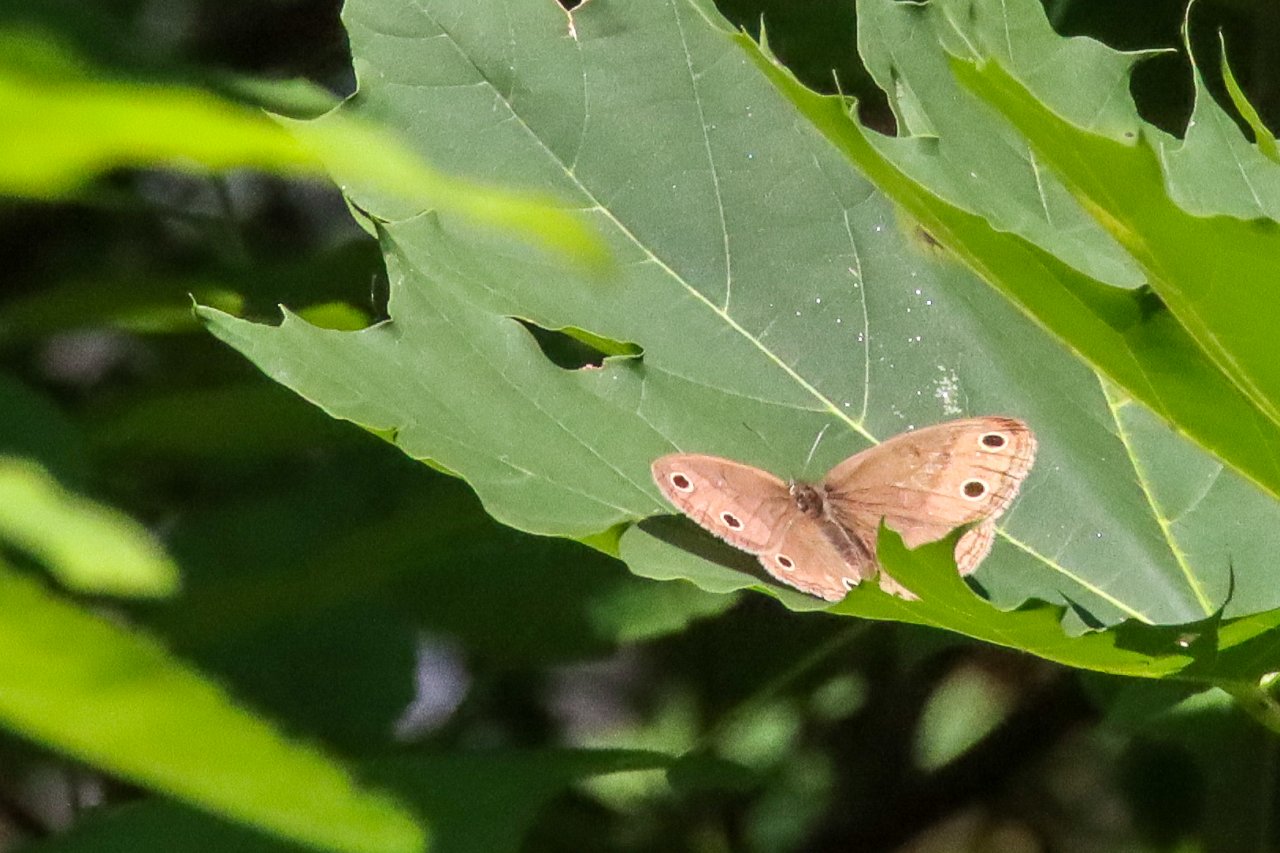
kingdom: Animalia
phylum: Arthropoda
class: Insecta
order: Lepidoptera
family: Nymphalidae
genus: Euptychia
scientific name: Euptychia cymela
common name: Little Wood Satyr
